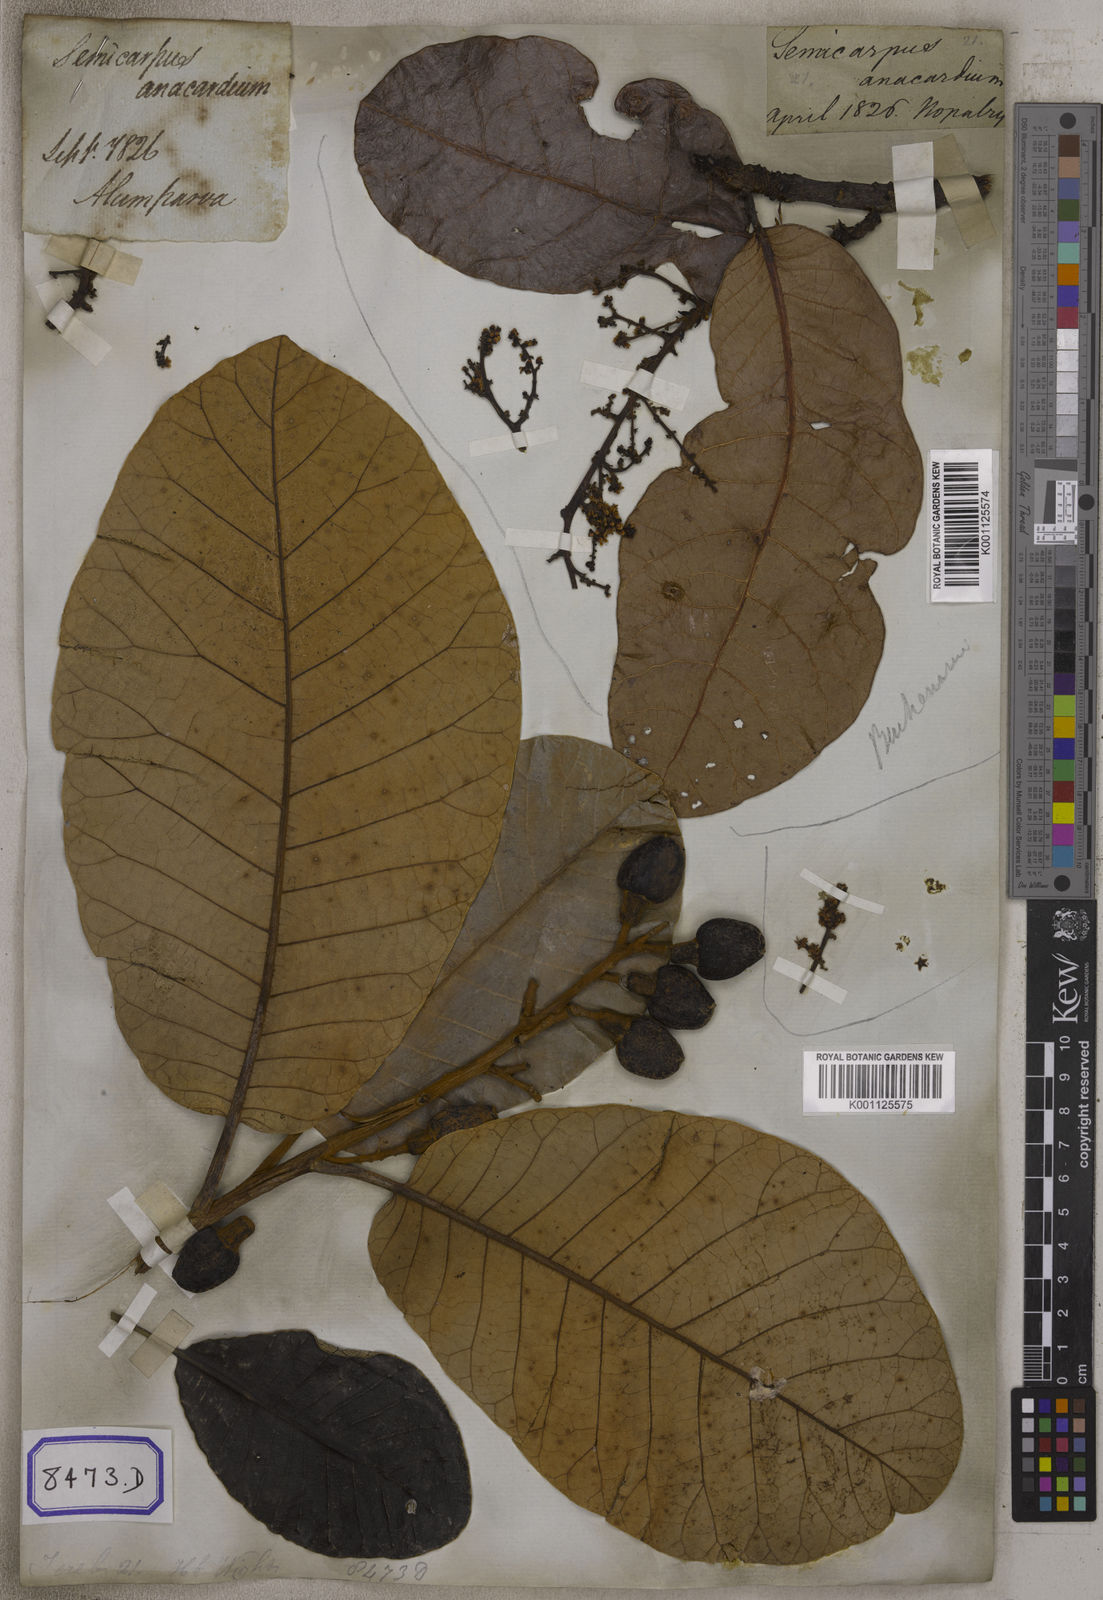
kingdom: Plantae
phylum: Tracheophyta
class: Magnoliopsida
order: Sapindales
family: Anacardiaceae
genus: Semecarpus
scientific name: Semecarpus anacardium
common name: Marking nut-tree
